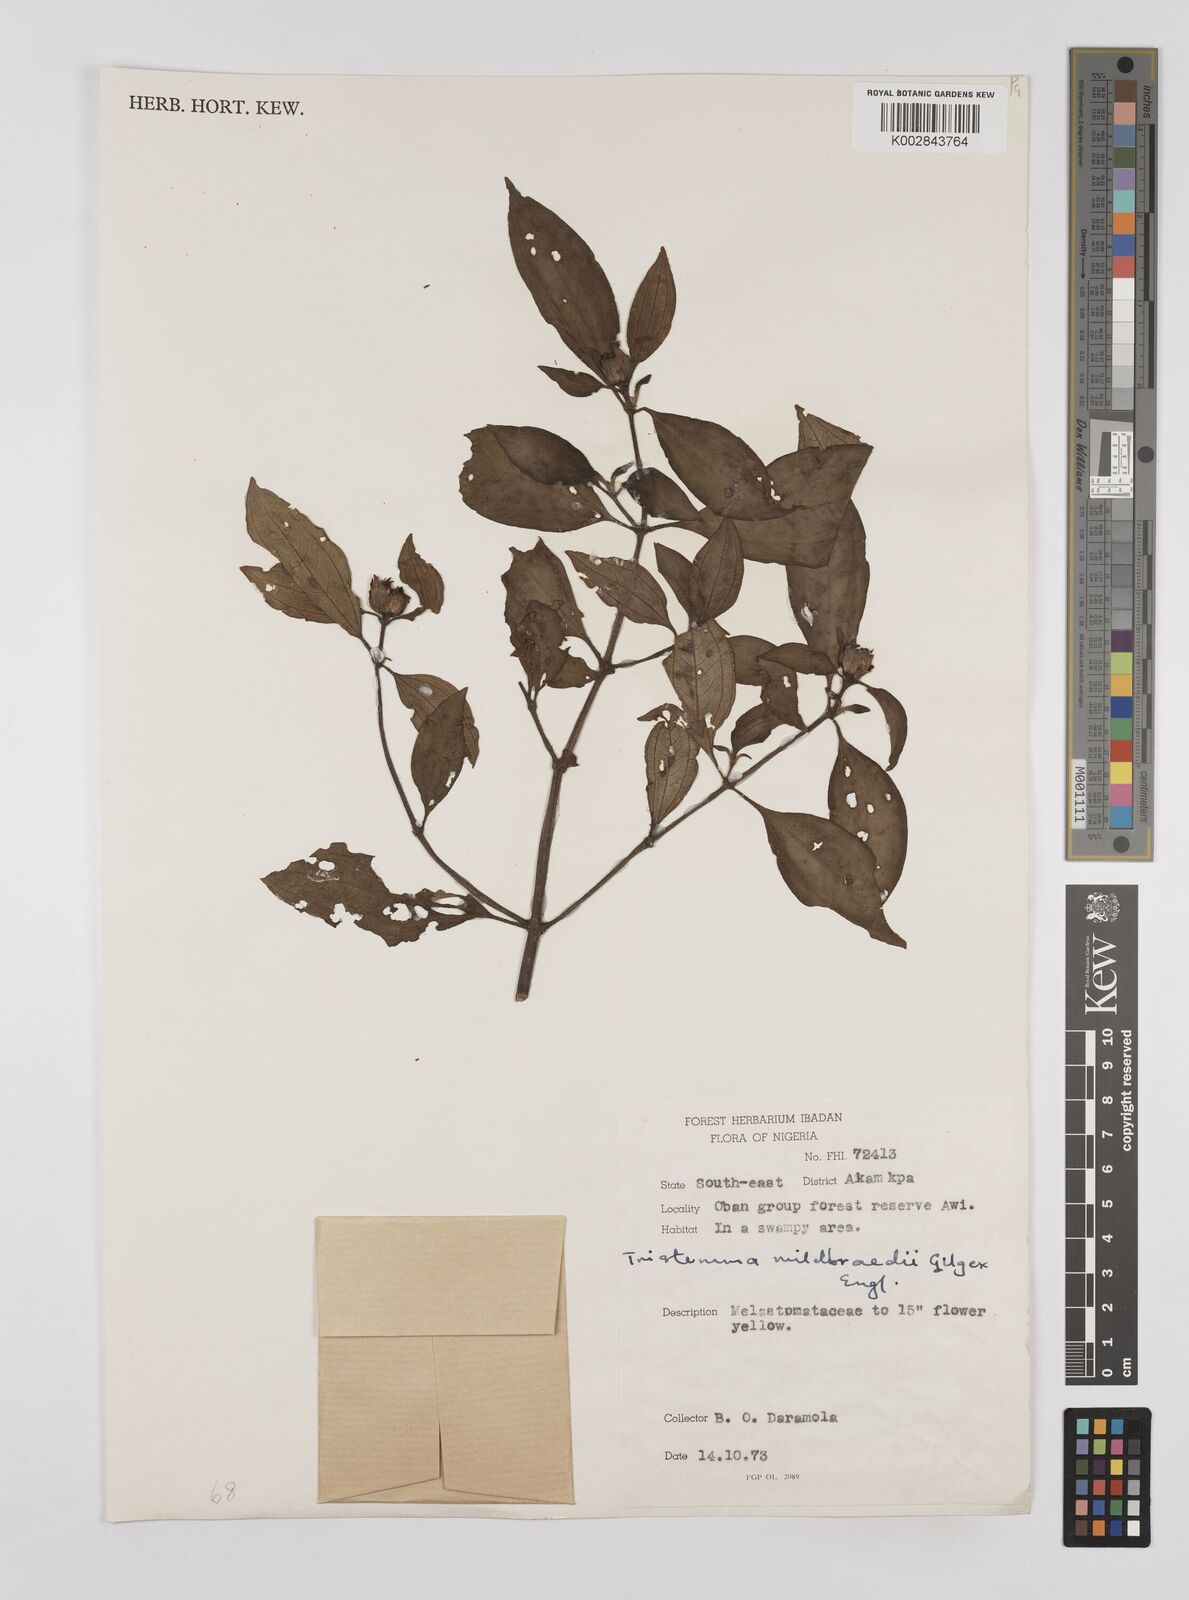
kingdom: Plantae
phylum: Tracheophyta
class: Magnoliopsida
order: Myrtales
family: Melastomataceae
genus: Tristemma
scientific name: Tristemma mauritianum
